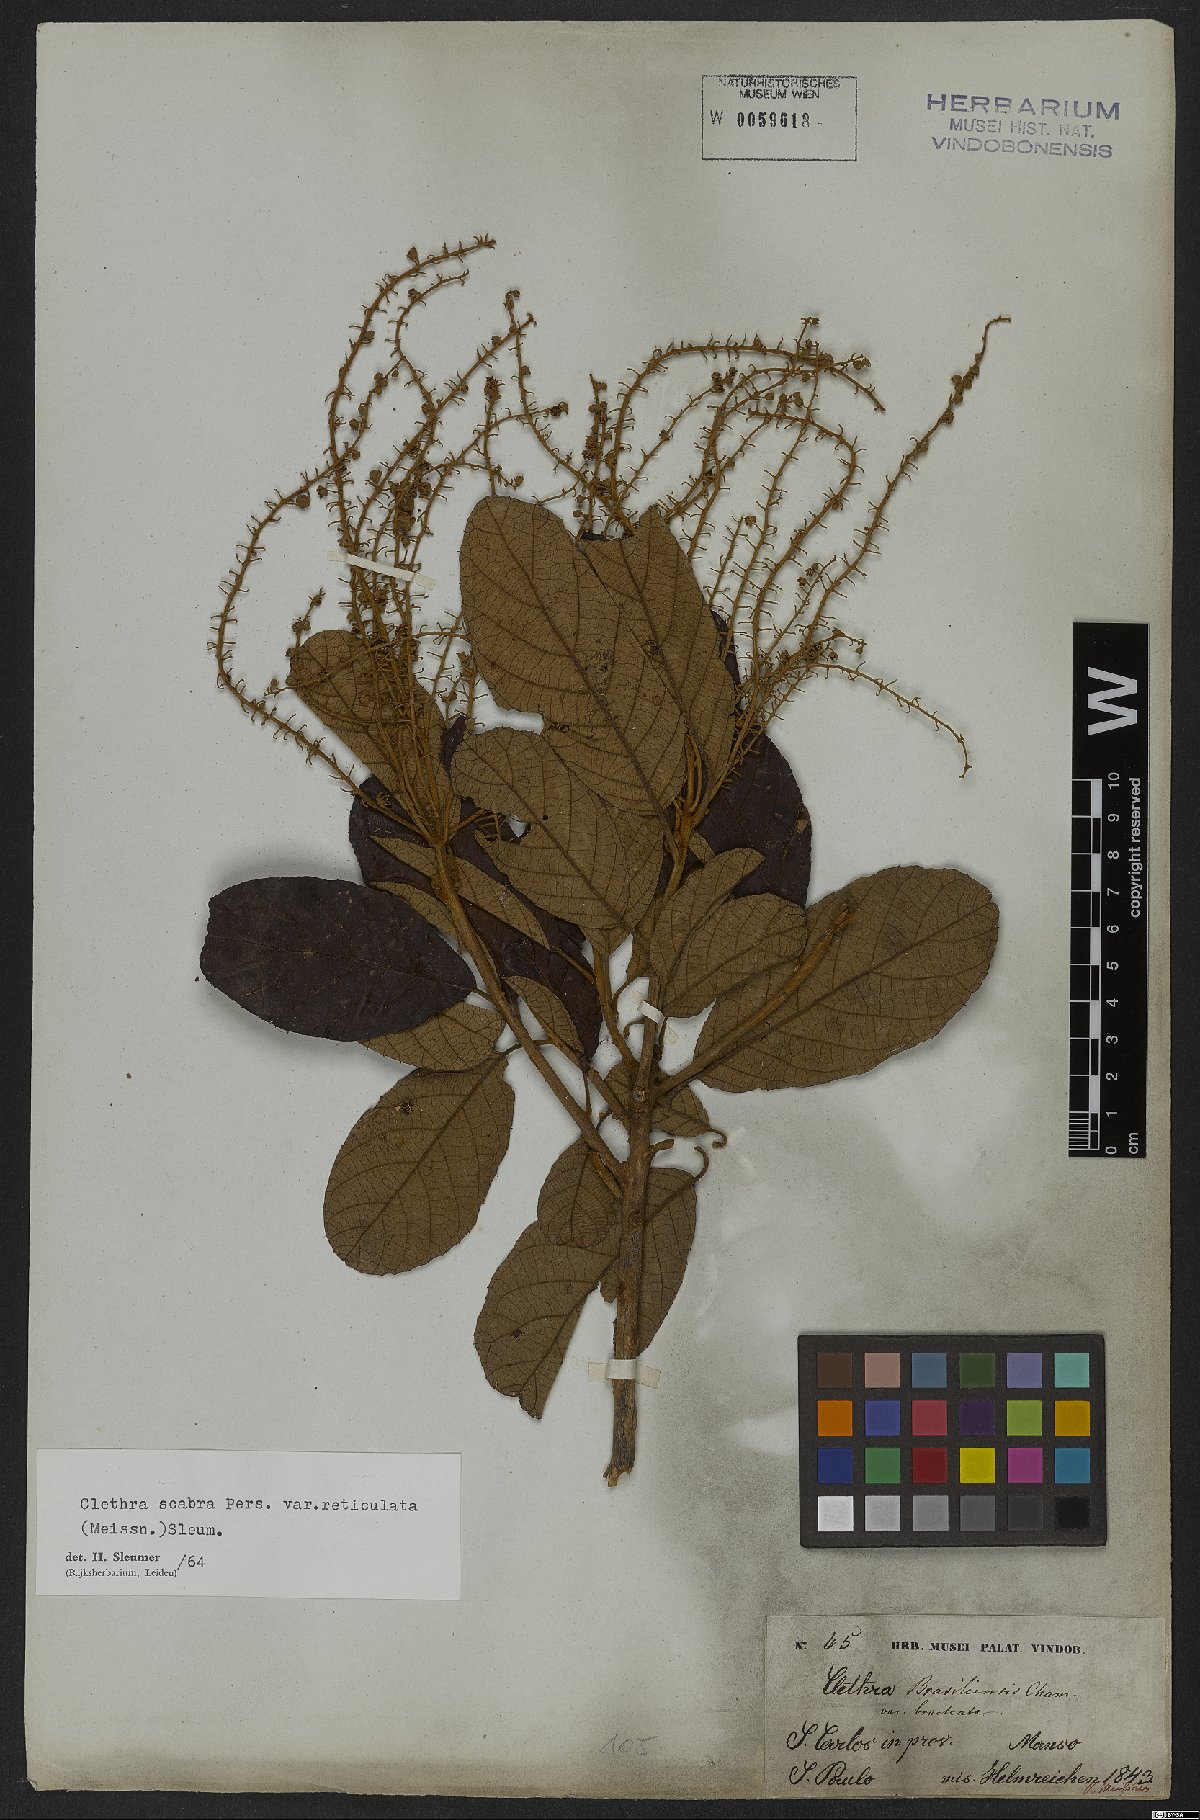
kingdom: Plantae
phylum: Tracheophyta
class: Magnoliopsida
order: Ericales
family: Clethraceae
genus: Clethra
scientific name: Clethra scabra
